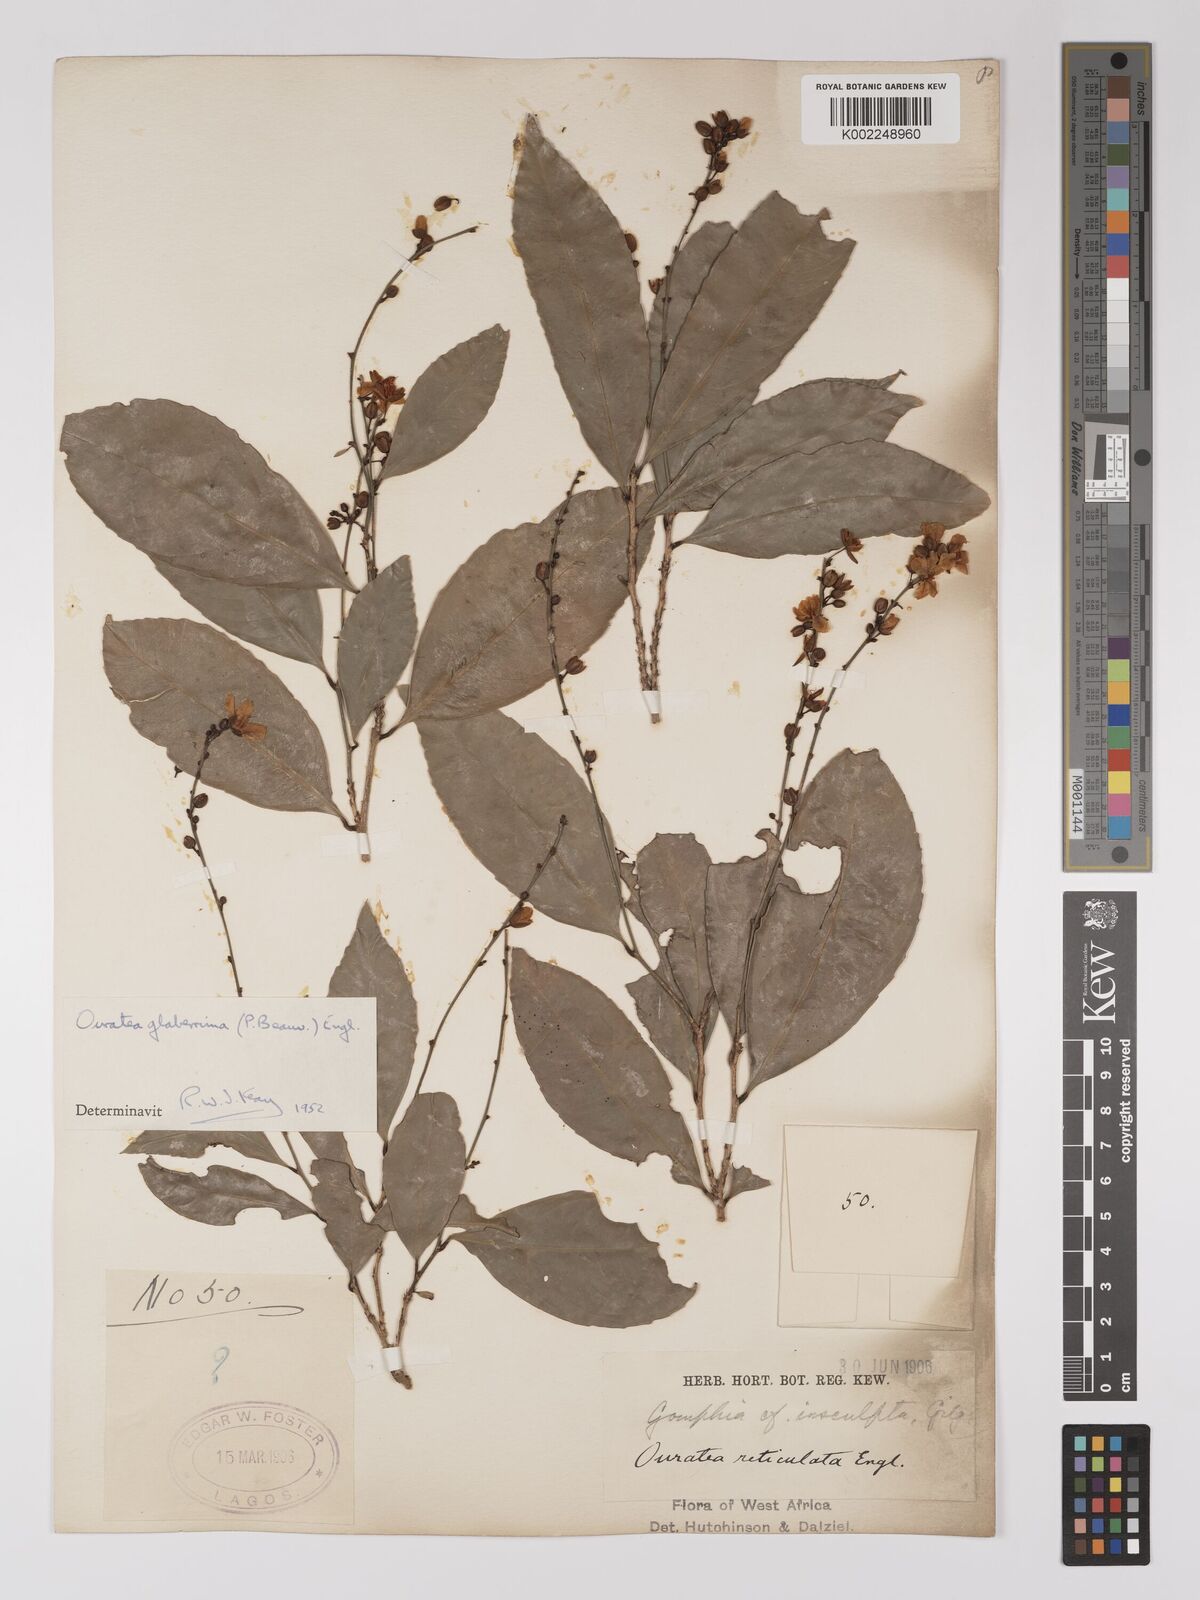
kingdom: Plantae
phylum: Tracheophyta
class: Magnoliopsida
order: Malpighiales
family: Ochnaceae
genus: Campylospermum
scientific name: Campylospermum glaberrimum
